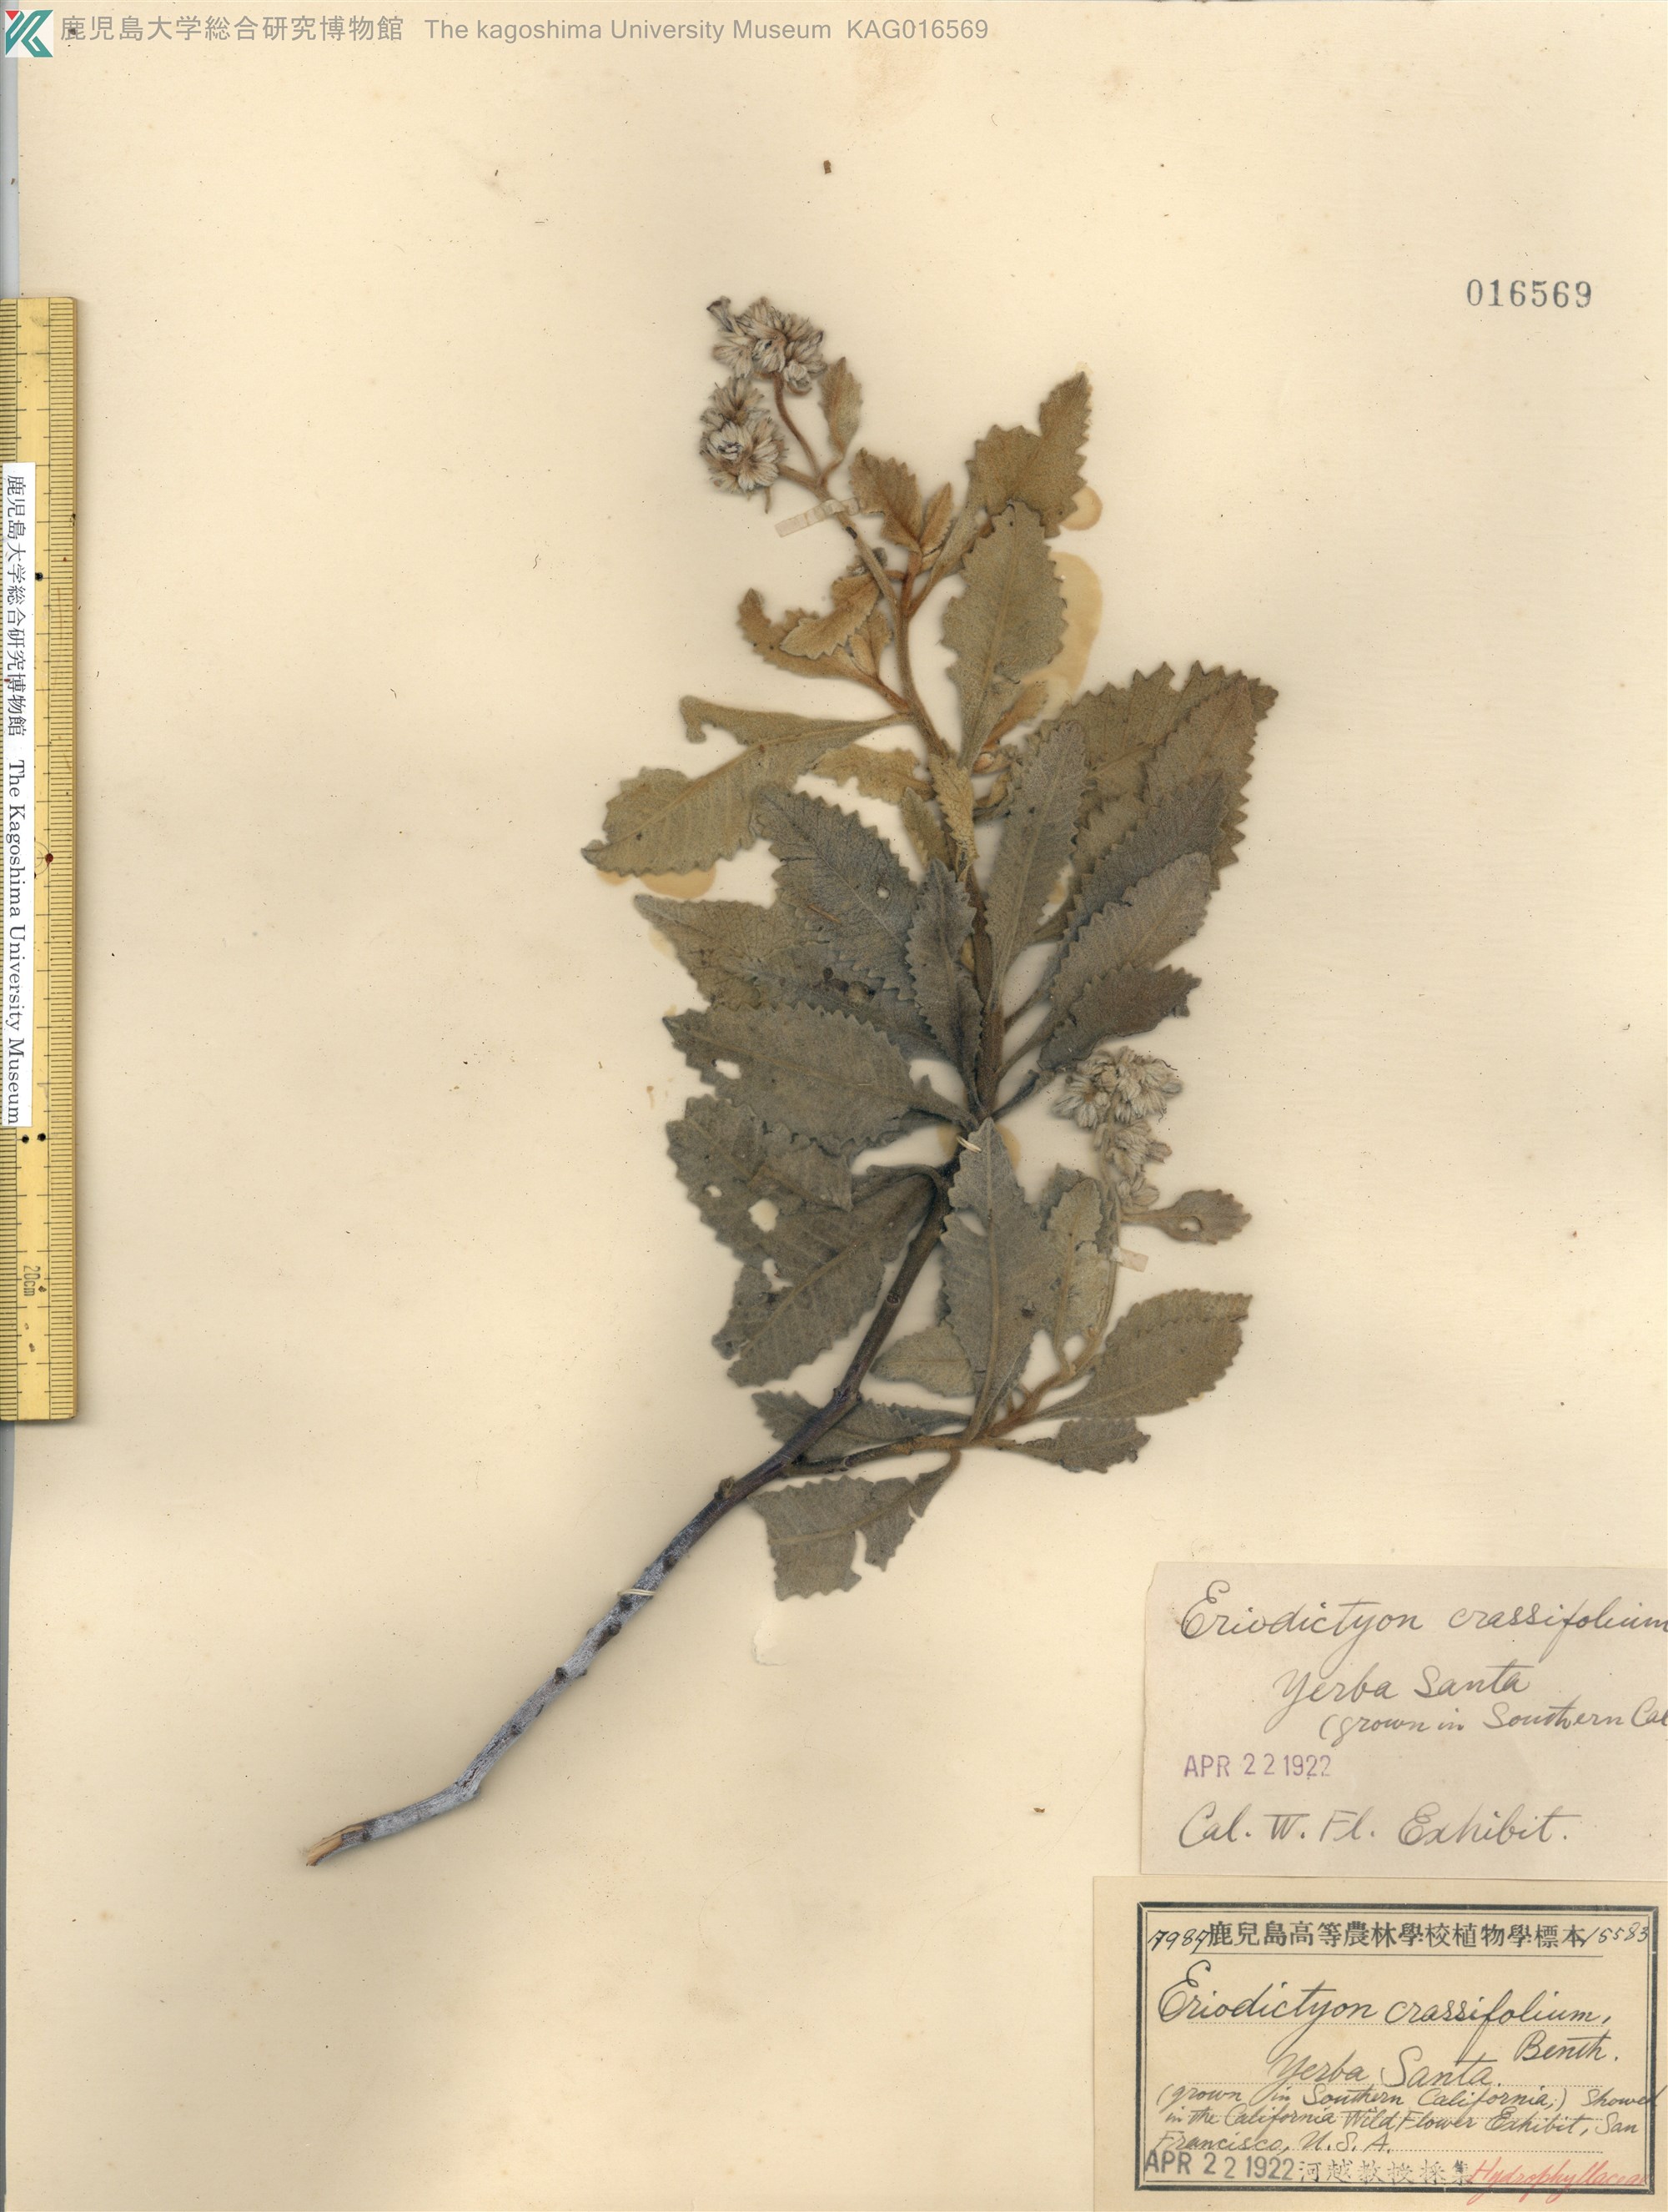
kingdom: Plantae
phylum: Tracheophyta
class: Magnoliopsida
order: Boraginales
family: Namaceae
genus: Eriodictyon
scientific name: Eriodictyon crassifolium
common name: Thick-leaf yerba-santa
